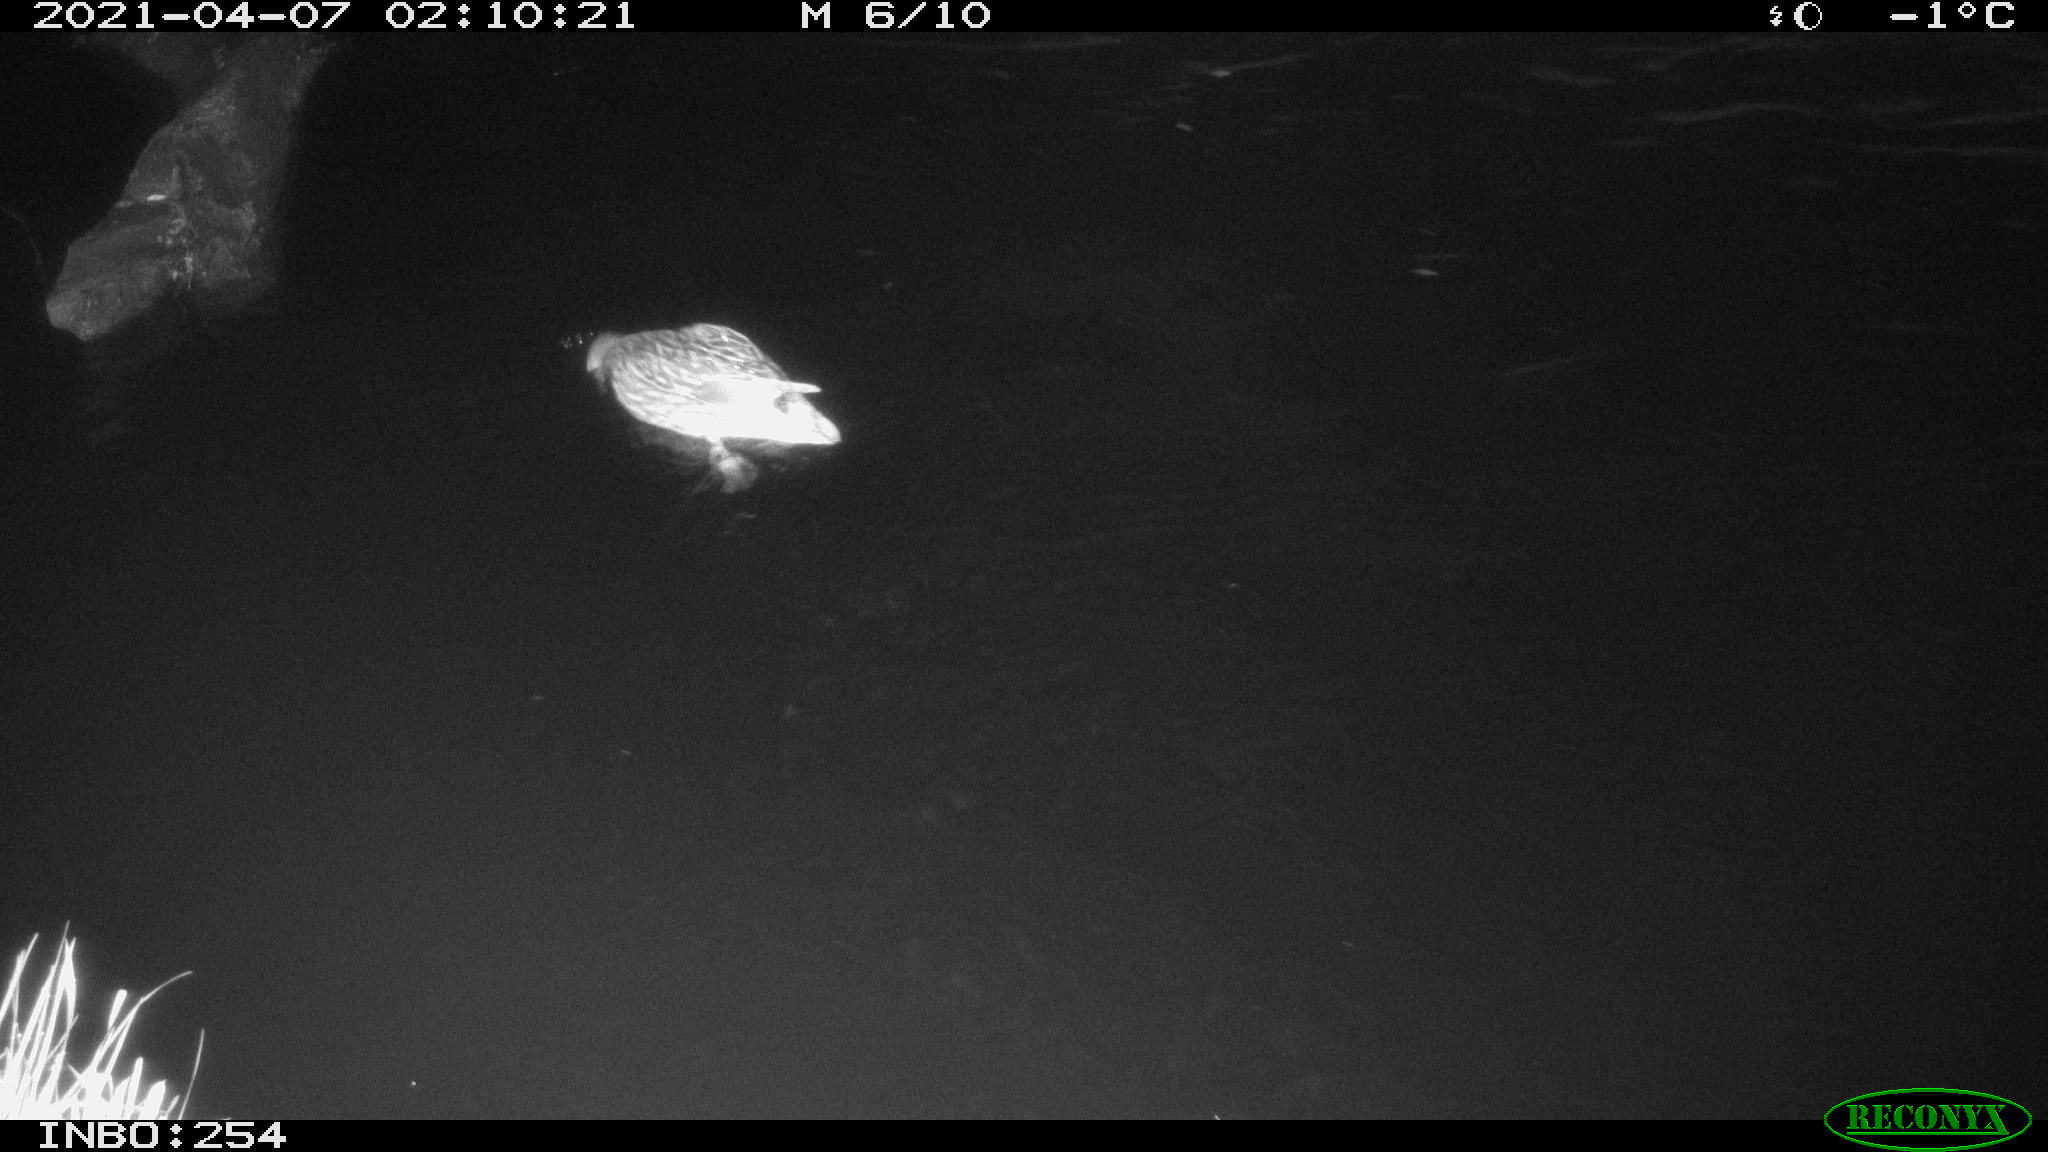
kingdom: Animalia
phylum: Chordata
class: Aves
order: Anseriformes
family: Anatidae
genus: Anas
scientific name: Anas
